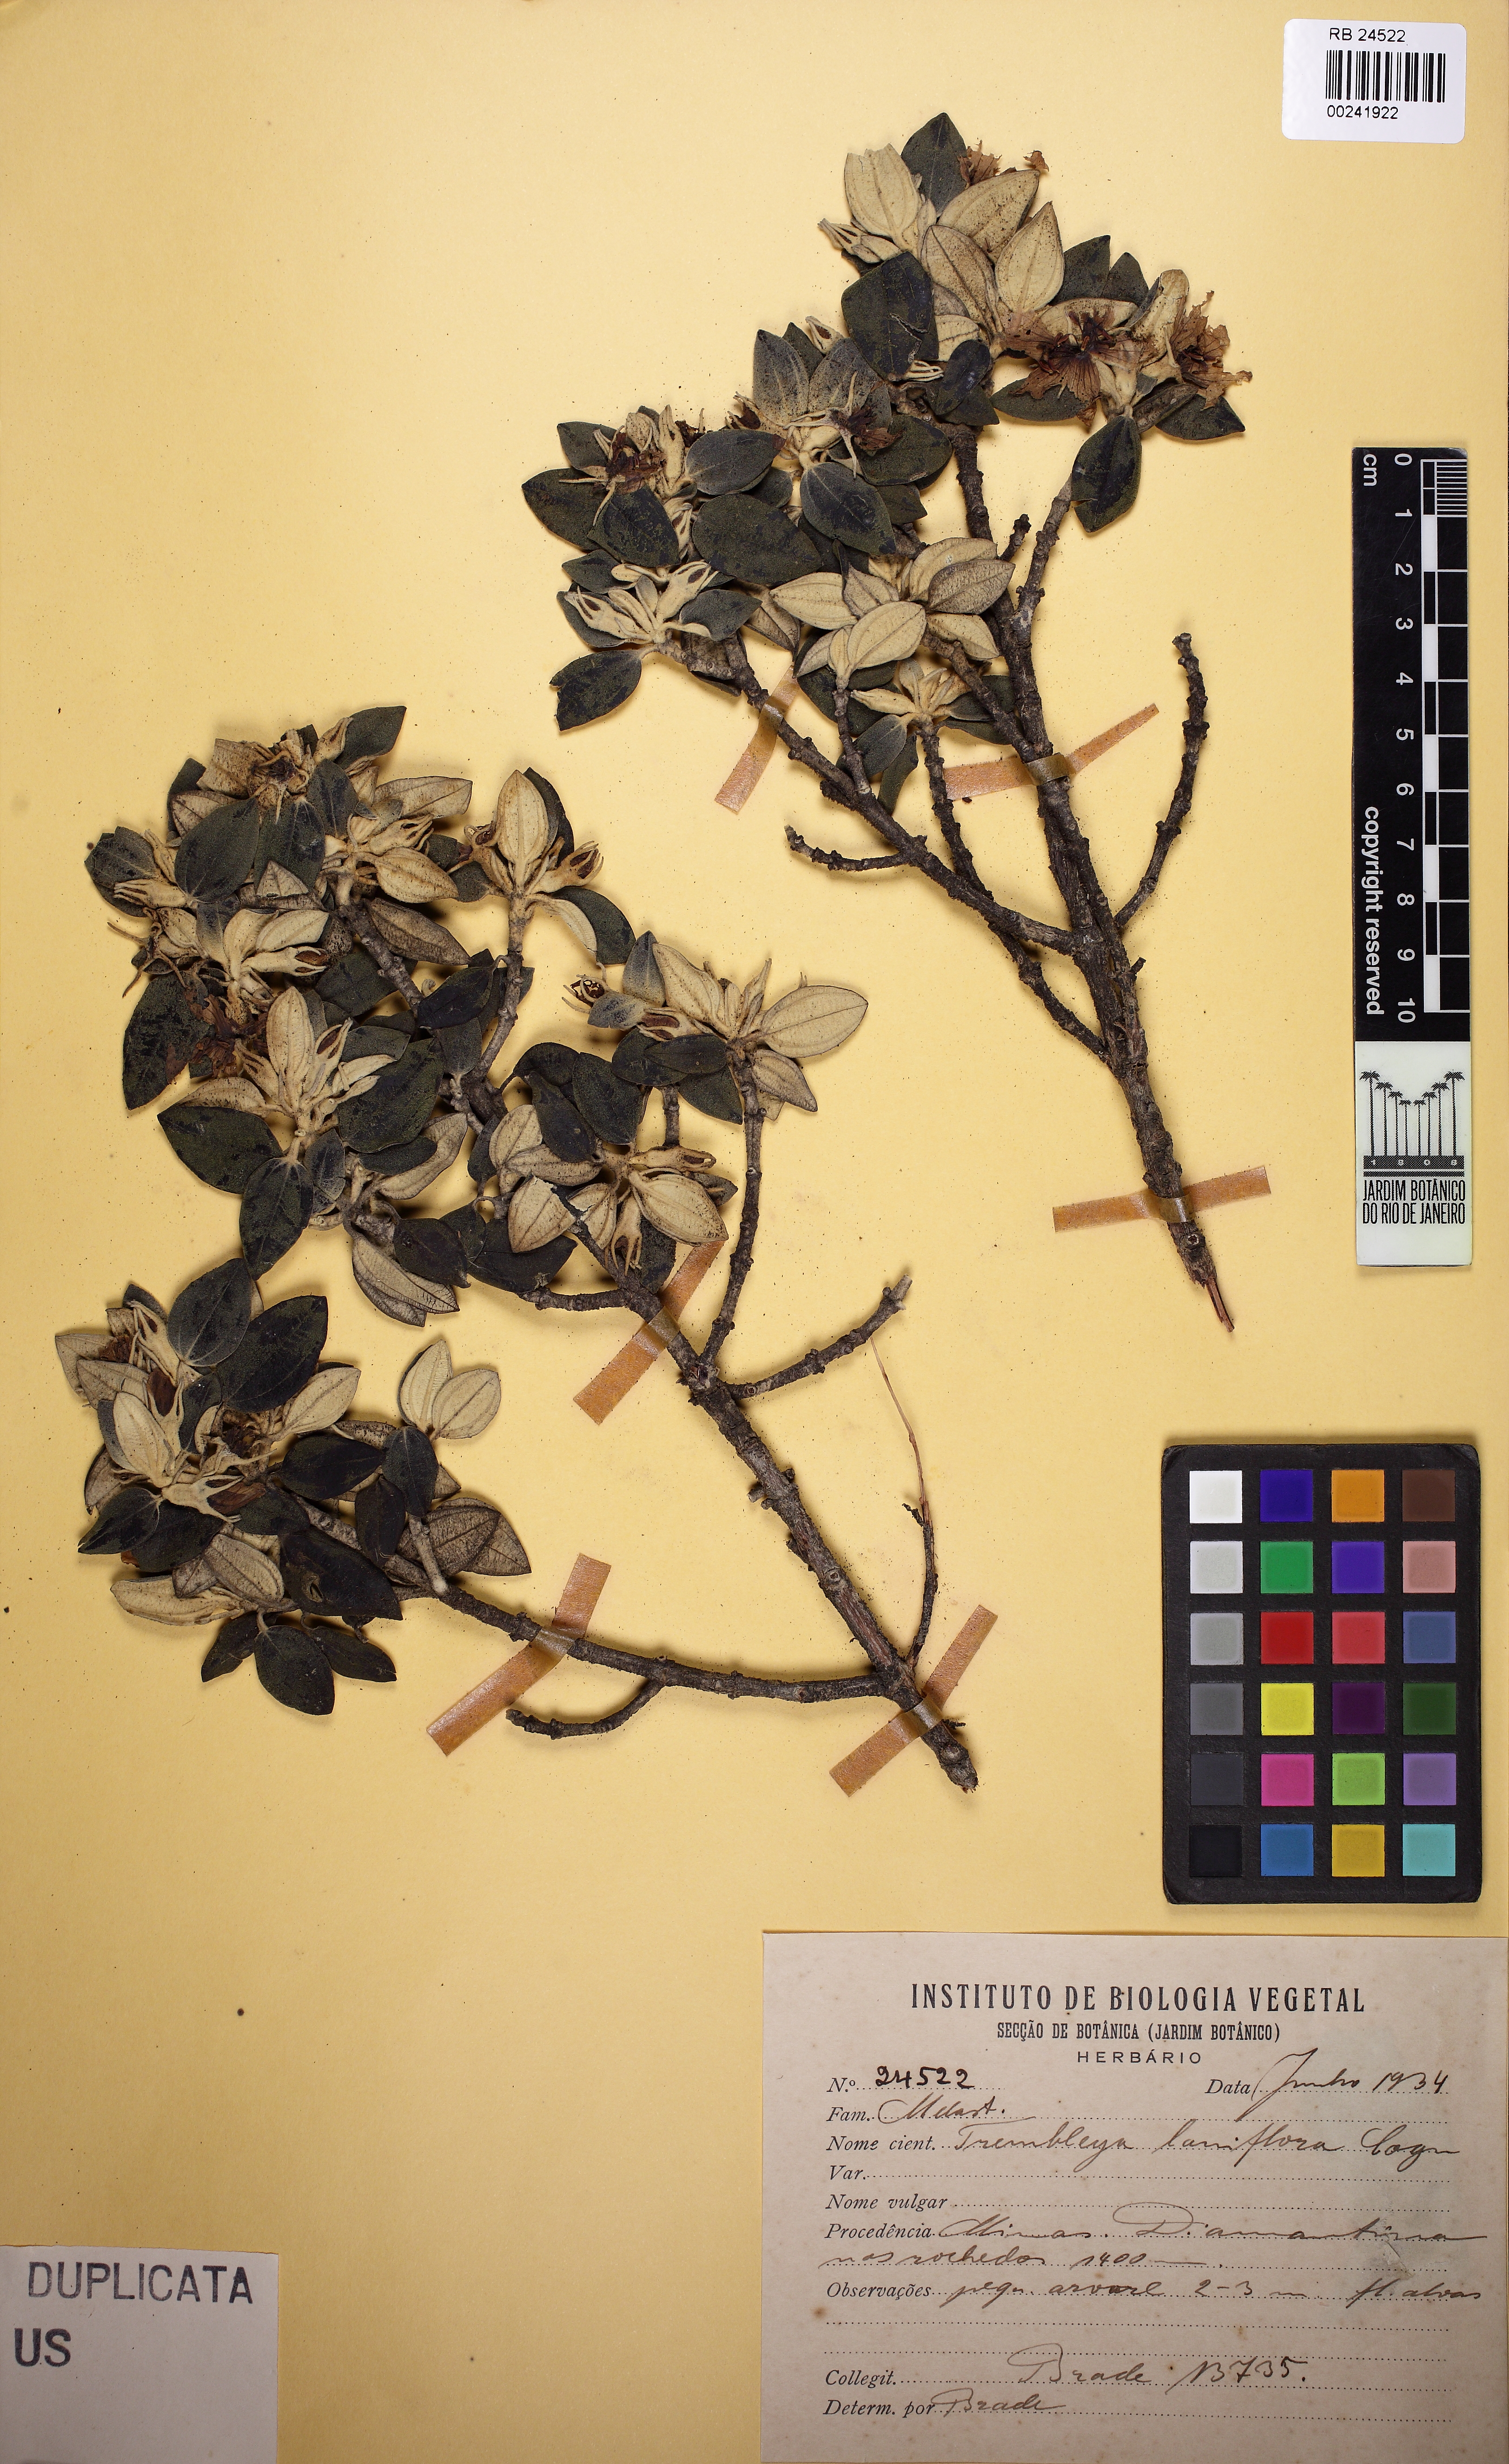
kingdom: Plantae
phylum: Tracheophyta
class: Magnoliopsida
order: Myrtales
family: Melastomataceae
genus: Microlicia
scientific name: Microlicia laniflora
